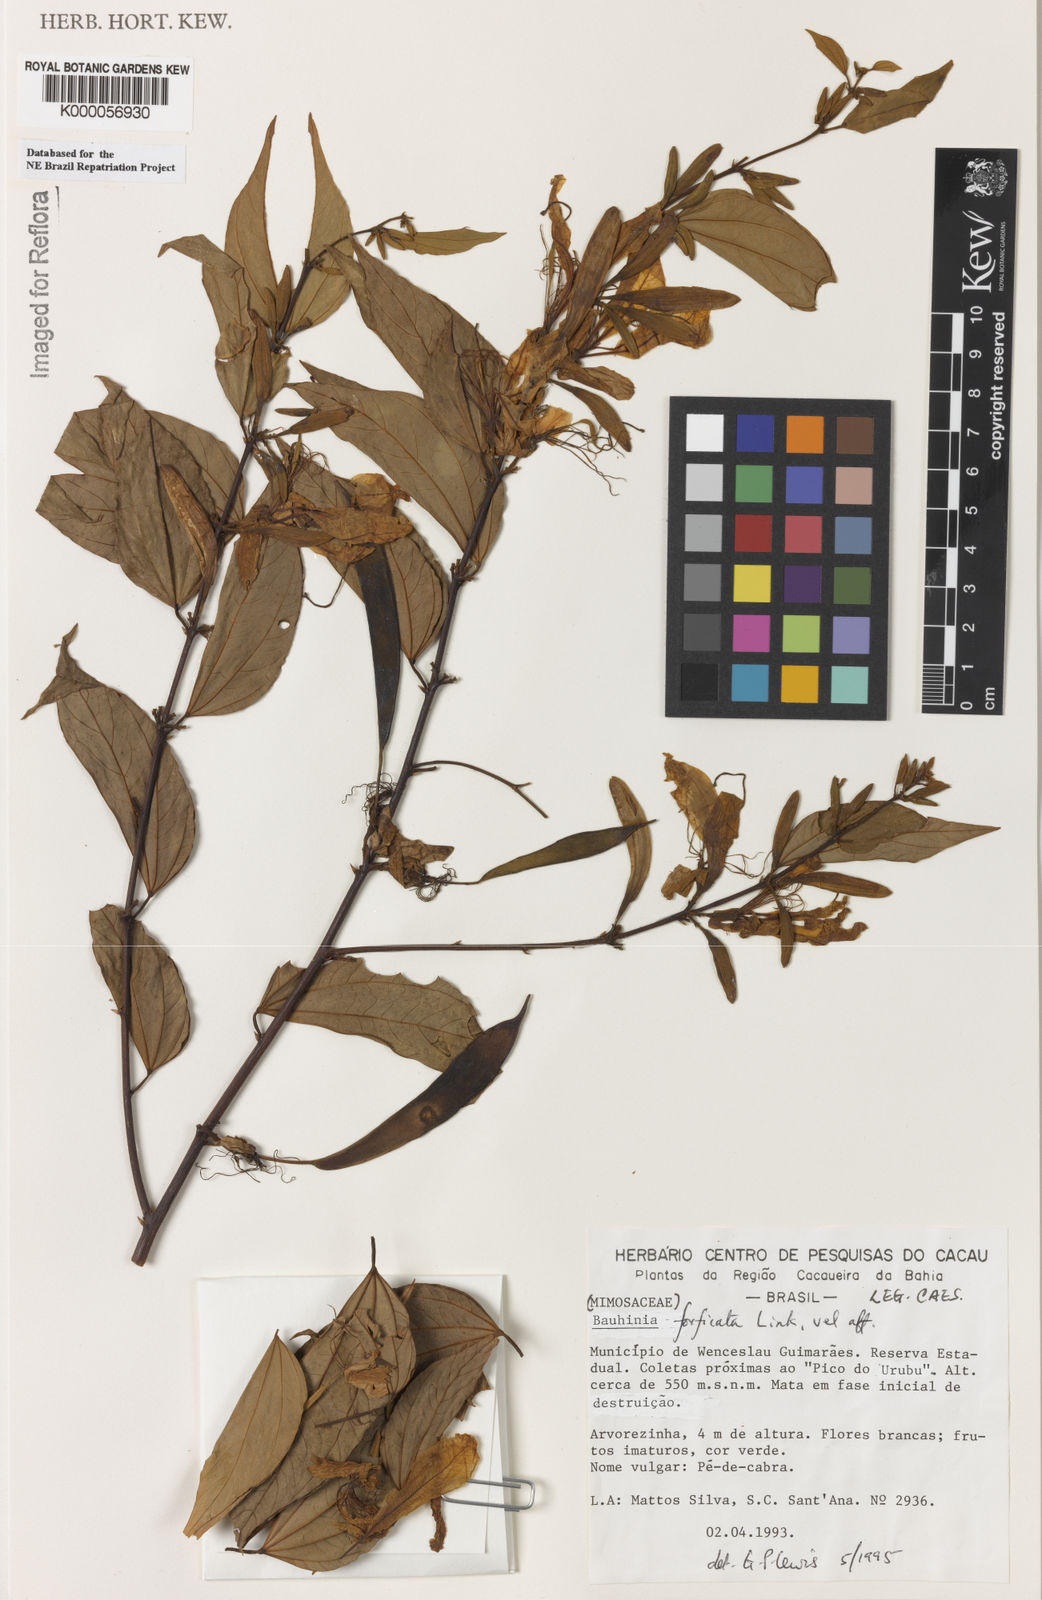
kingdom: Plantae
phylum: Tracheophyta
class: Magnoliopsida
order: Fabales
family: Fabaceae
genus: Bauhinia
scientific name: Bauhinia
